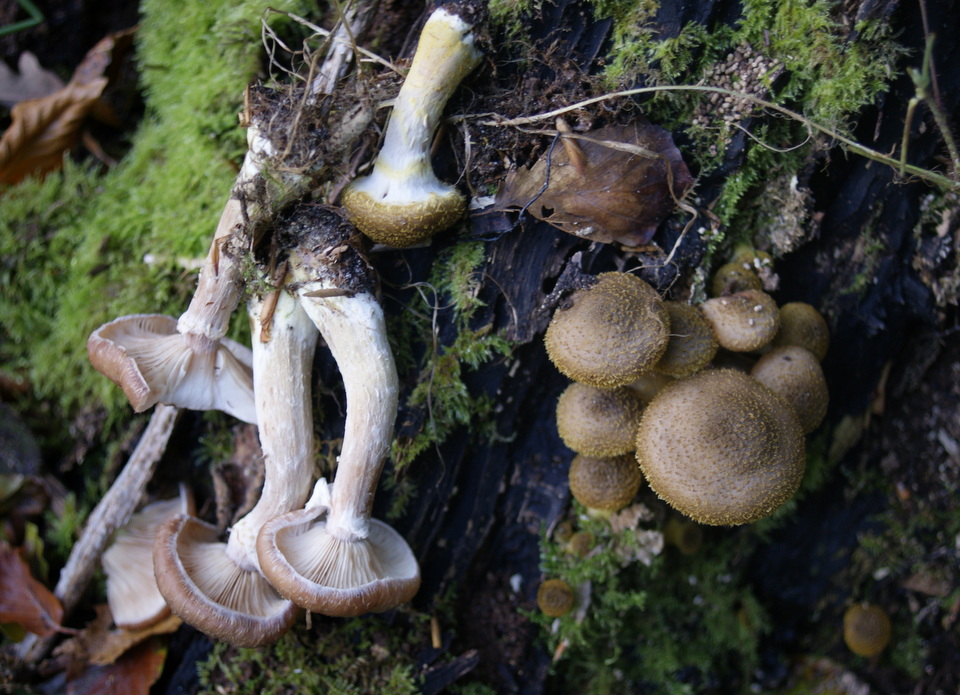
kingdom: Fungi
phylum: Basidiomycota
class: Agaricomycetes
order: Agaricales
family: Physalacriaceae
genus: Armillaria
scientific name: Armillaria lutea
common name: køllestokket honningsvamp
